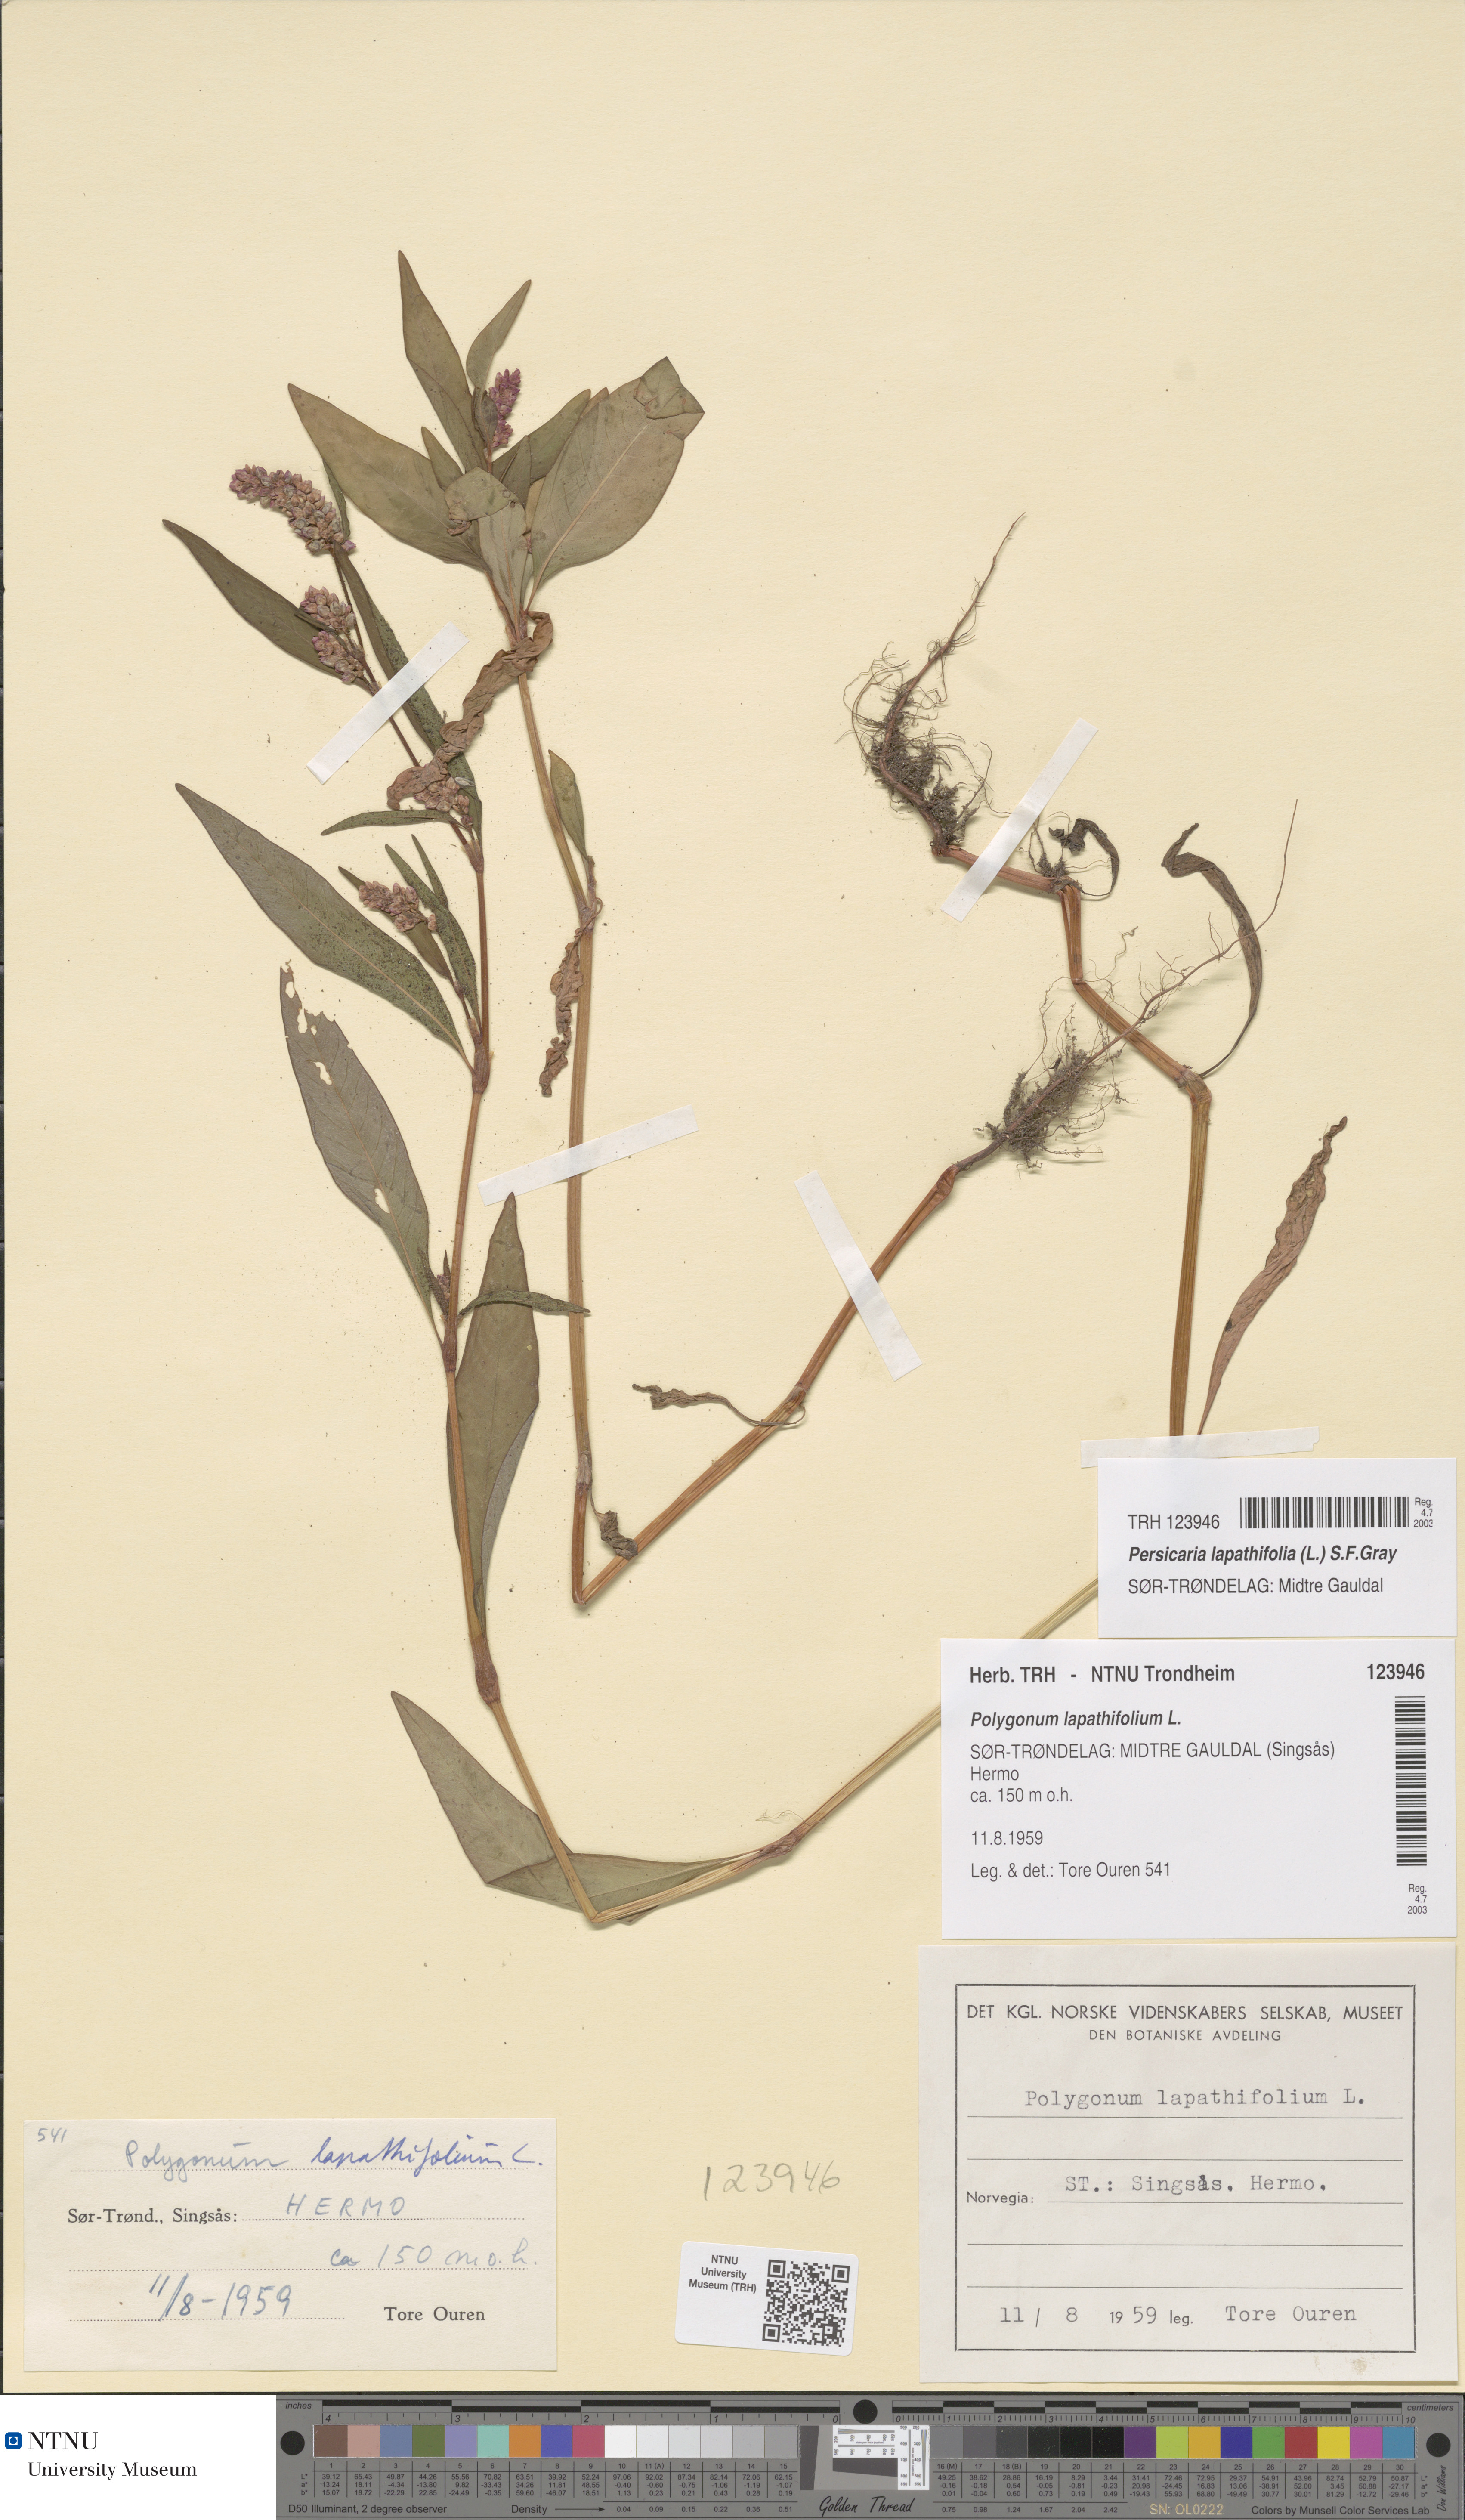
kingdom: Plantae
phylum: Tracheophyta
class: Magnoliopsida
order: Caryophyllales
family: Polygonaceae
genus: Persicaria
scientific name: Persicaria lapathifolia
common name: Curlytop knotweed
